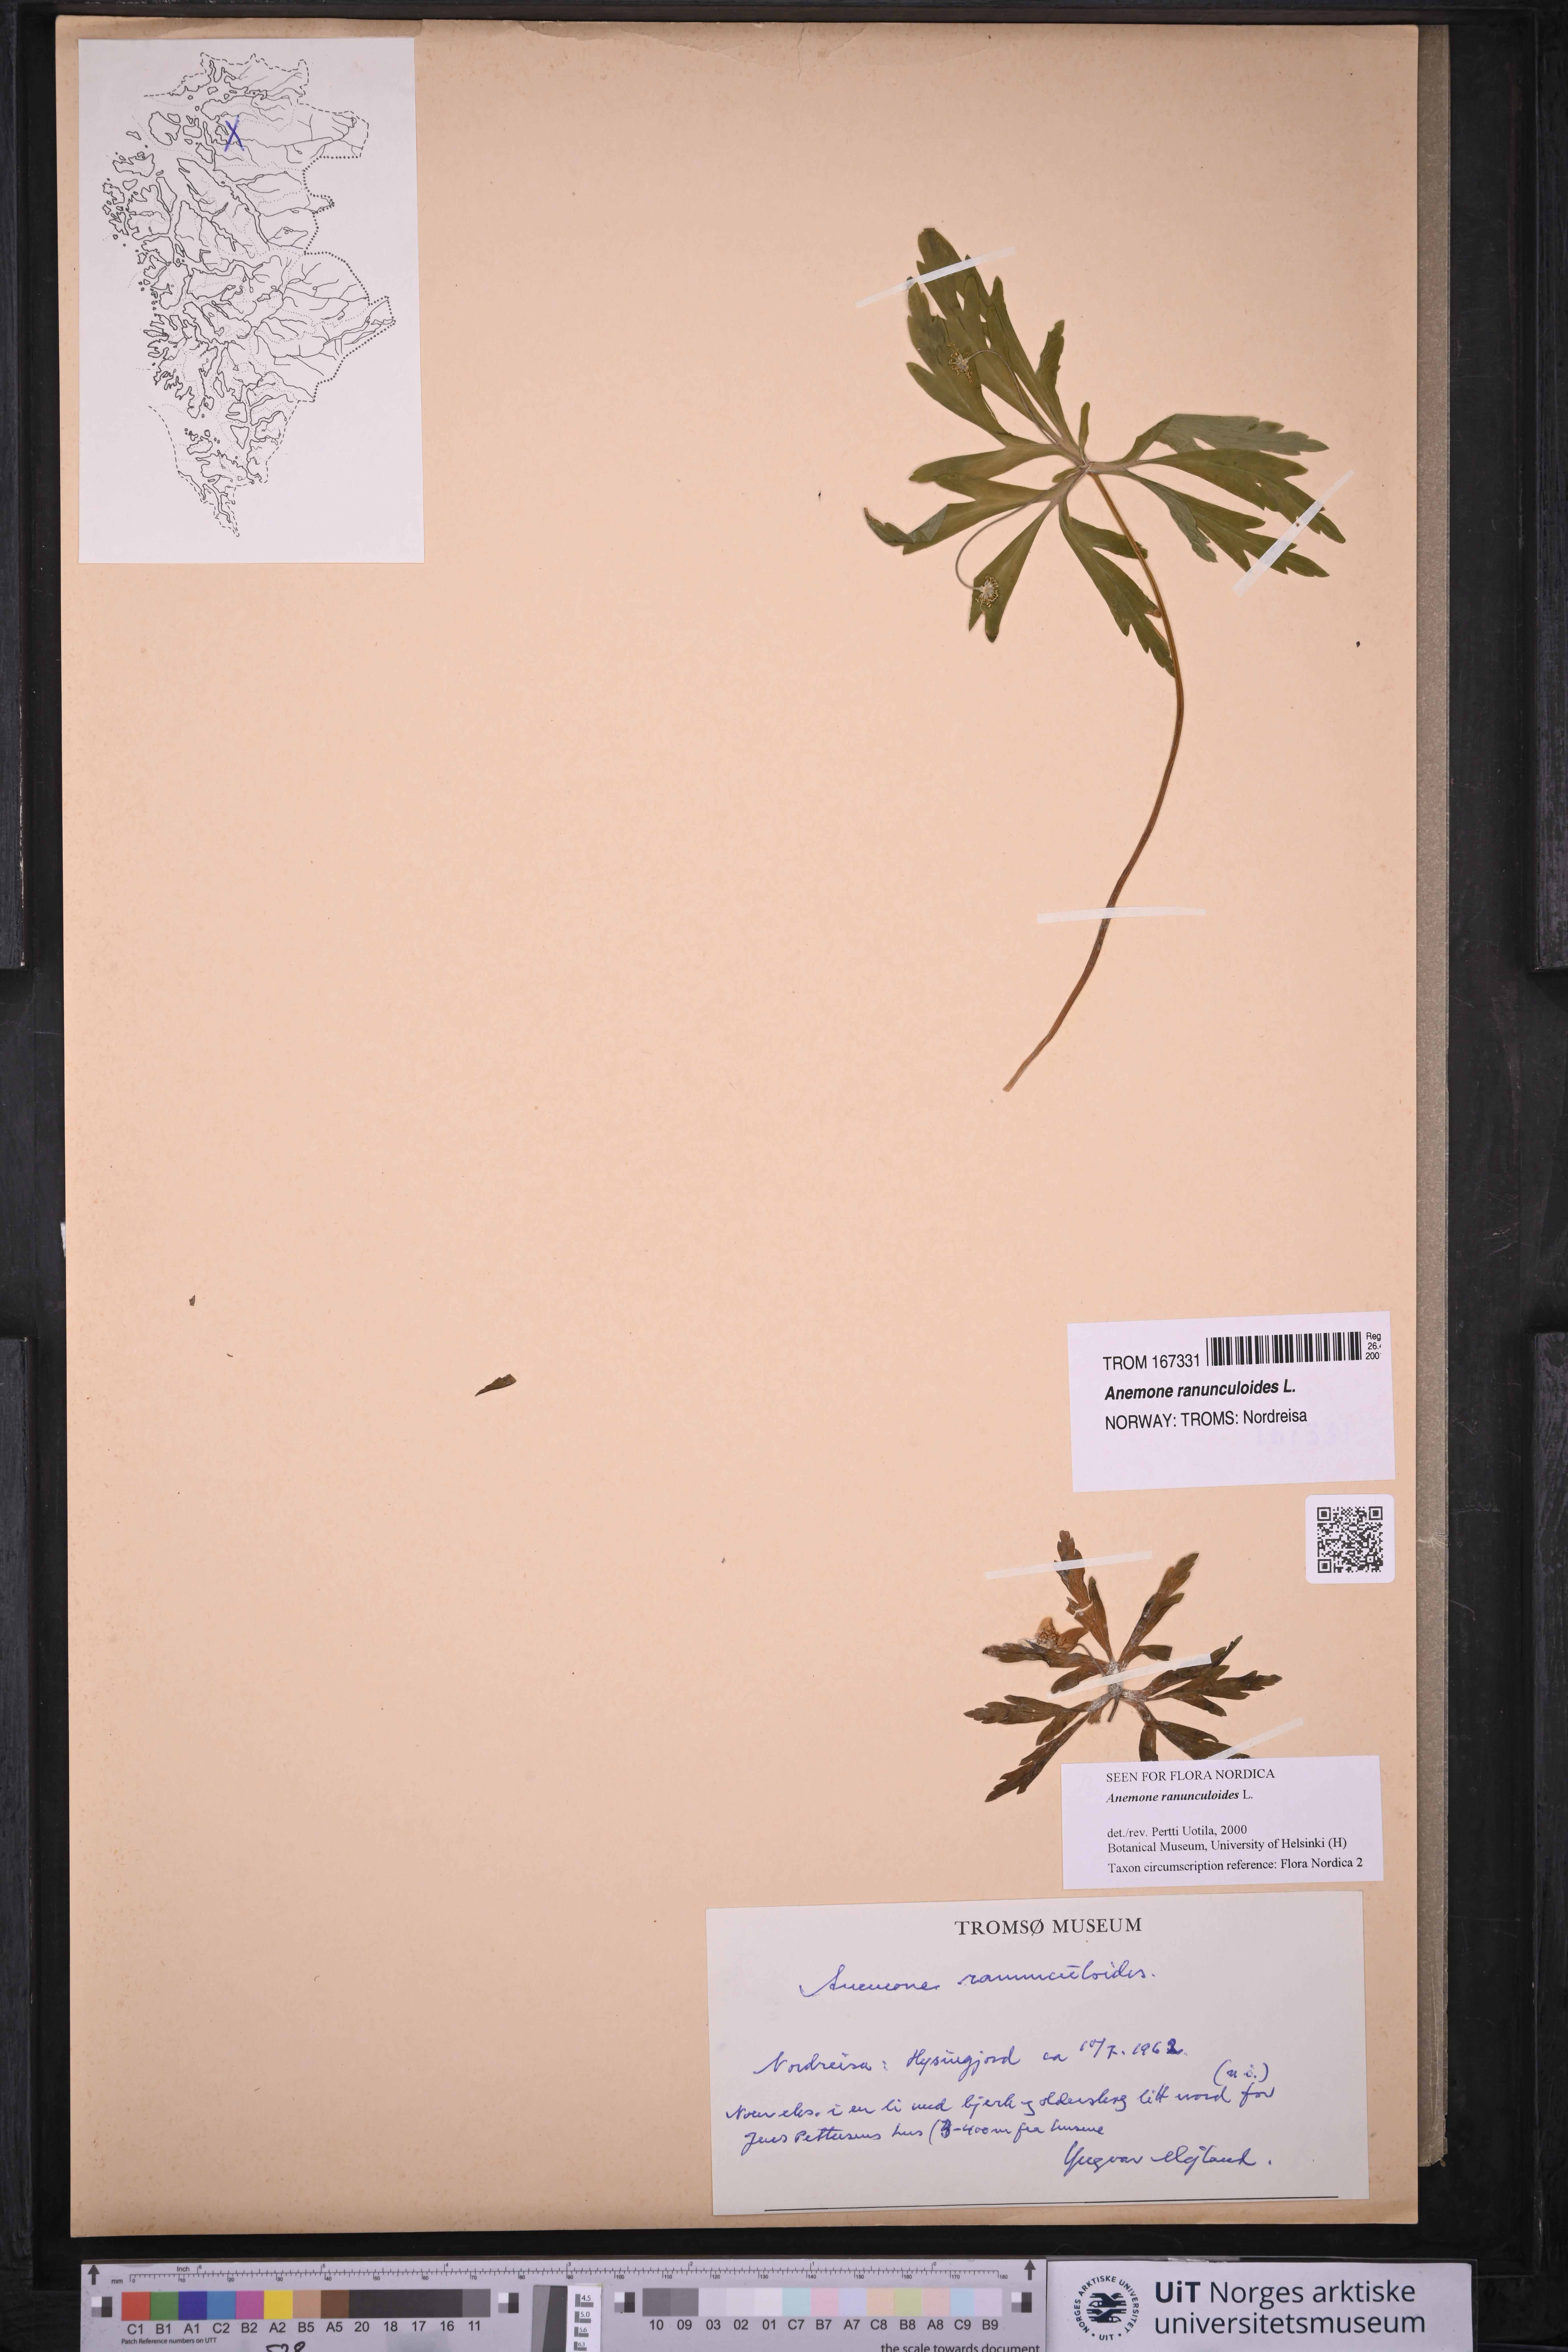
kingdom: Plantae
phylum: Tracheophyta
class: Magnoliopsida
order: Ranunculales
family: Ranunculaceae
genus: Anemone
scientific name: Anemone ranunculoides
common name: Yellow anemone
